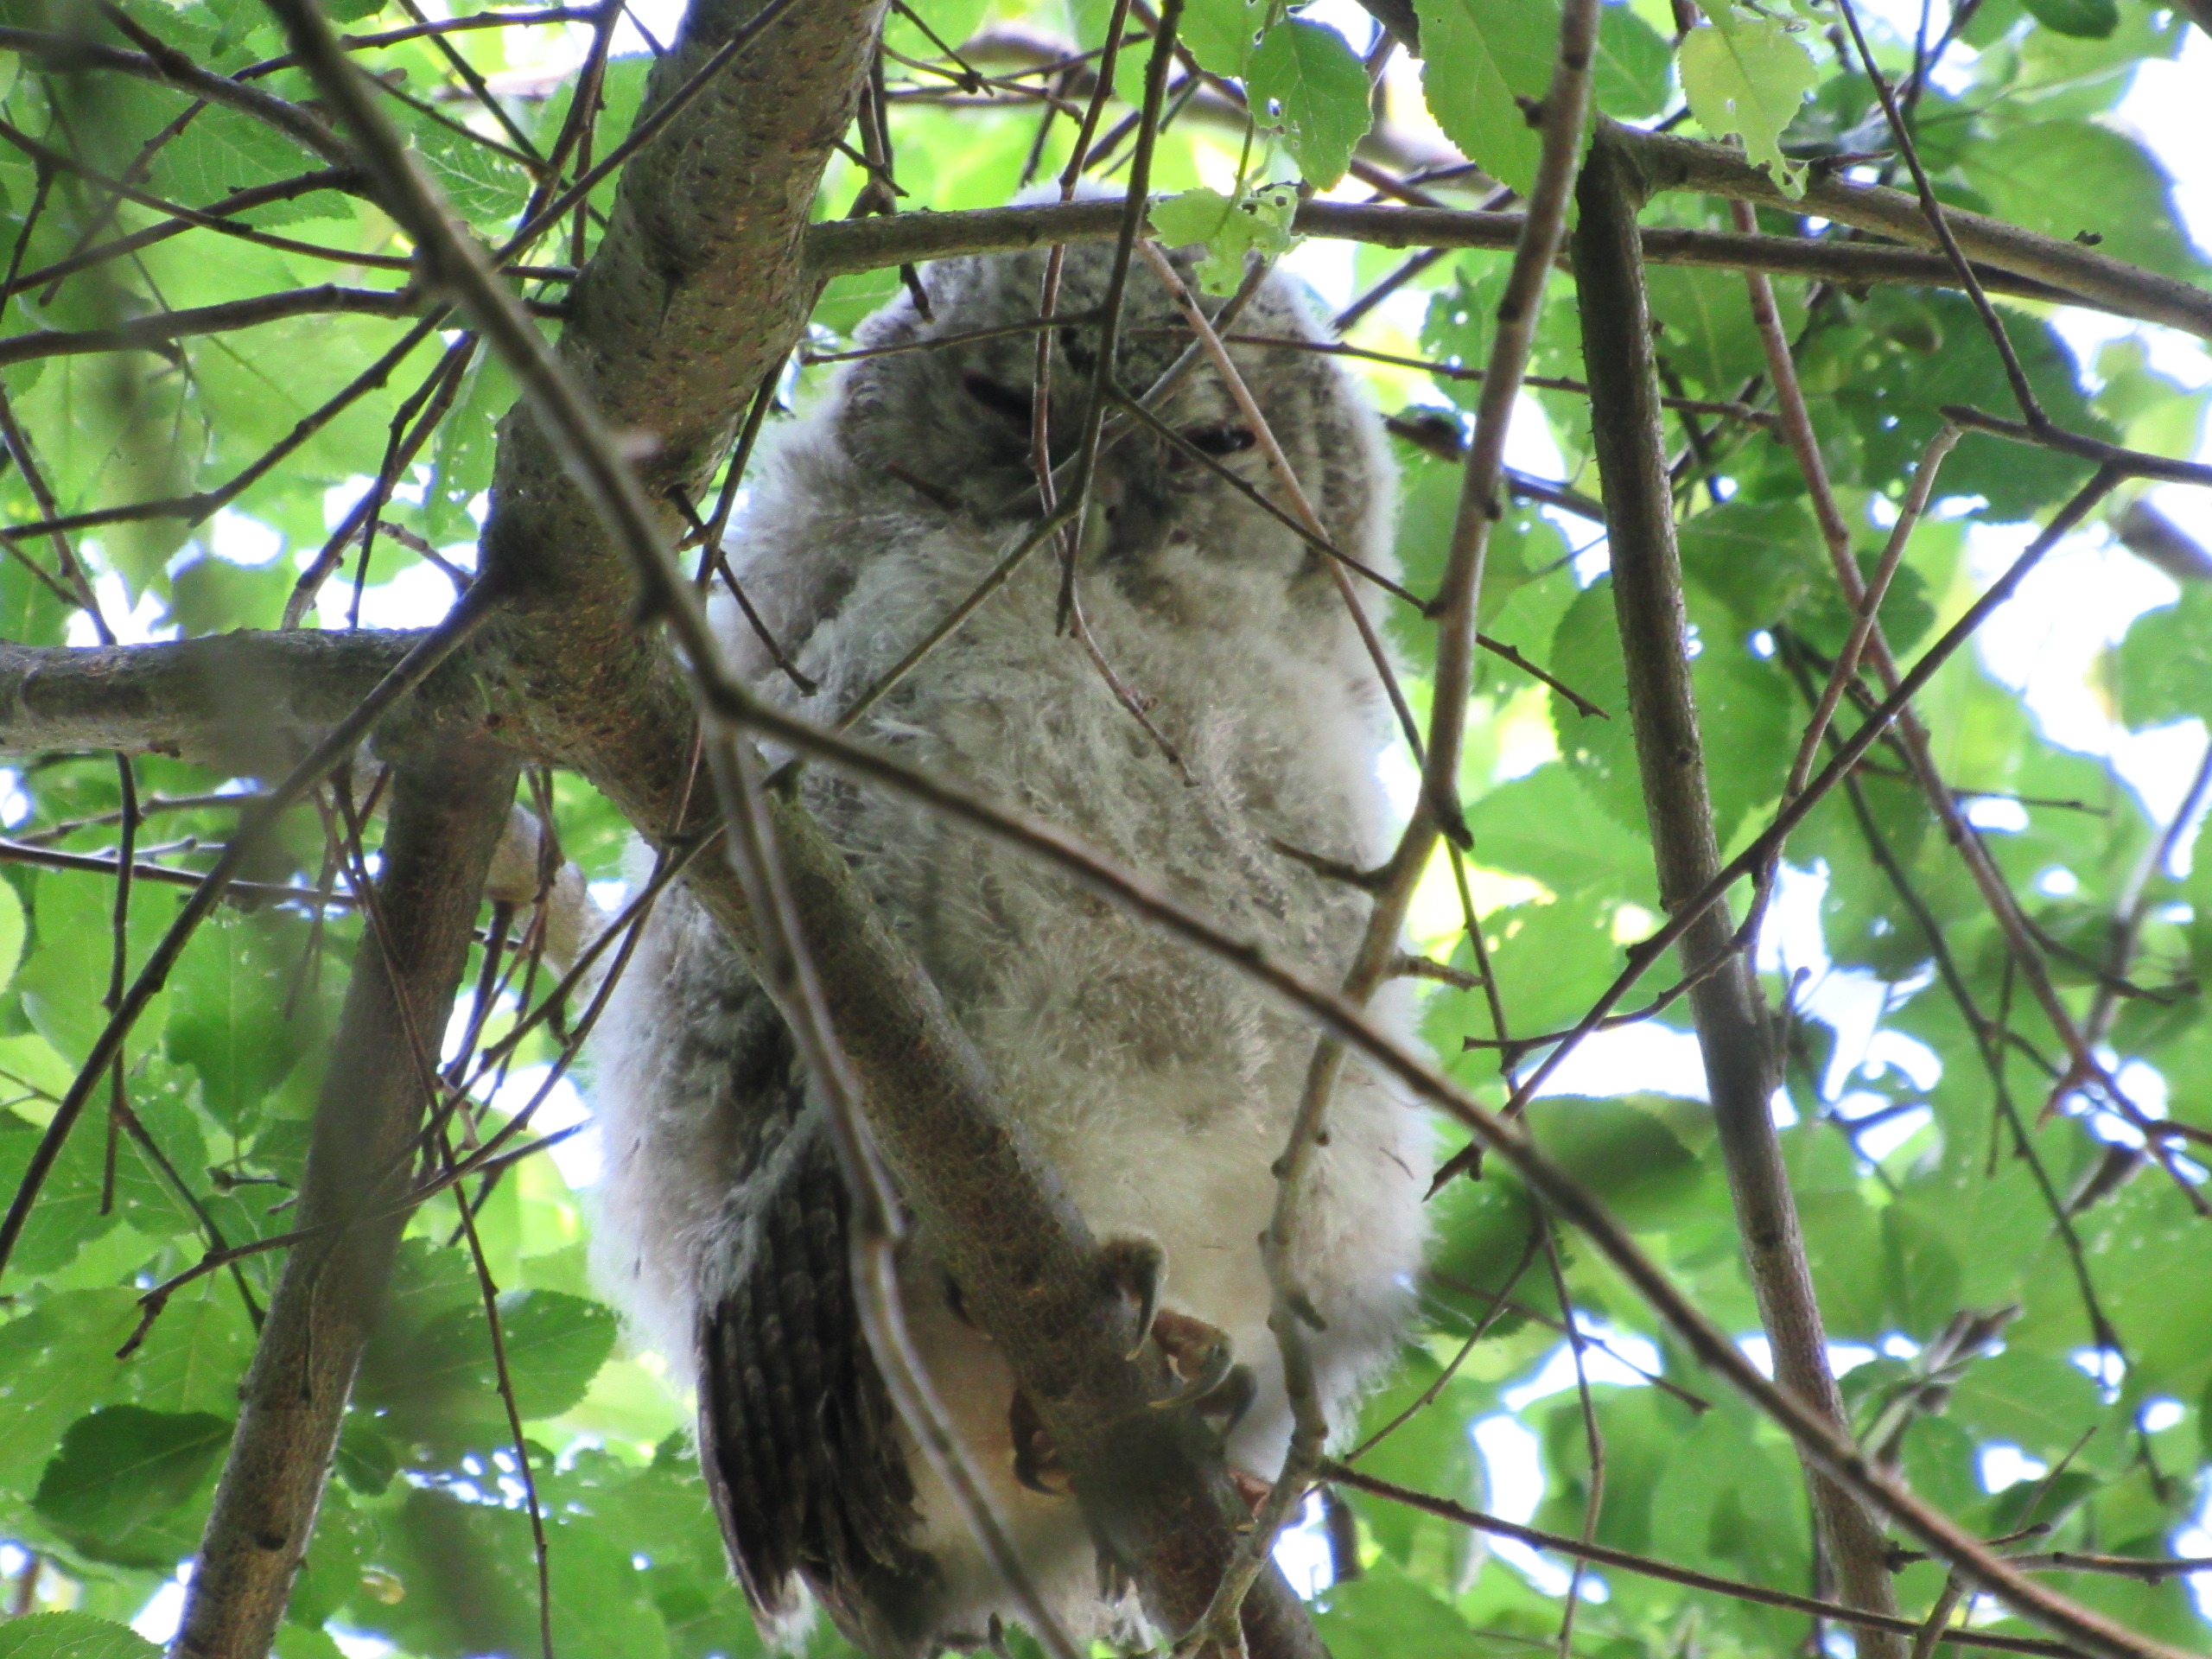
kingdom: Animalia
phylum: Chordata
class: Aves
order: Strigiformes
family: Strigidae
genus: Strix
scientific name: Strix aluco
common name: Natugle
